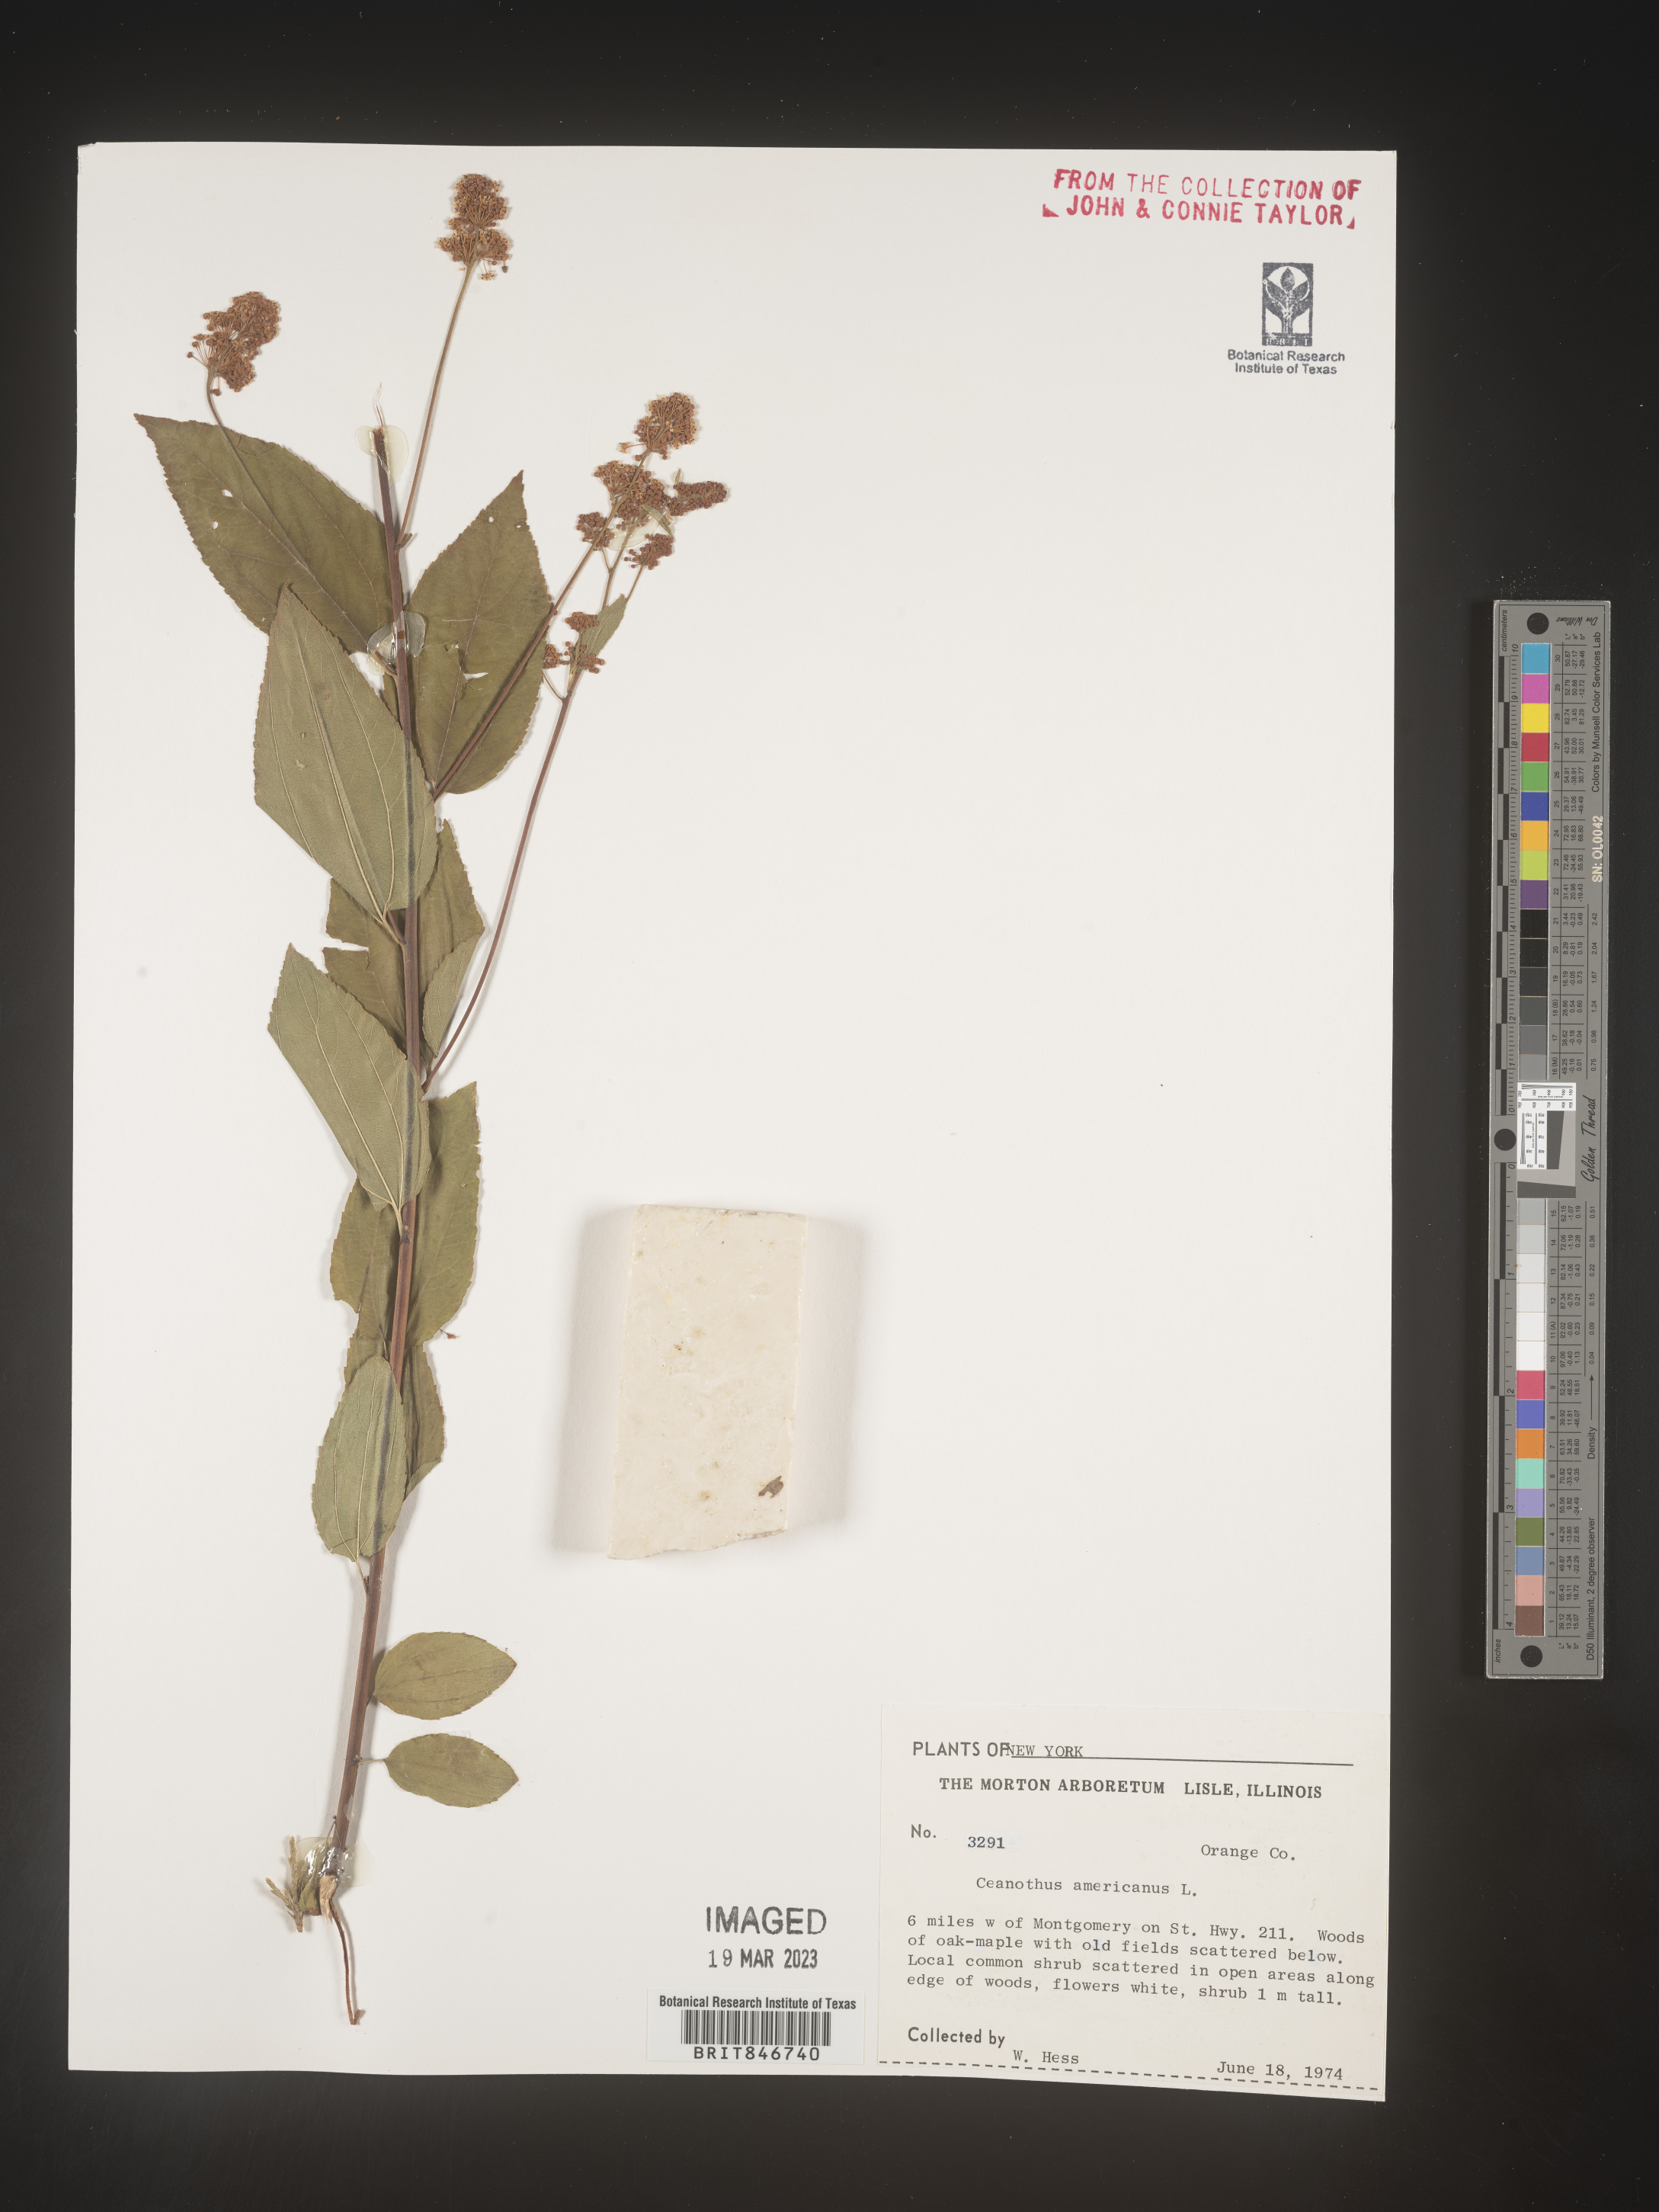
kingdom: Plantae
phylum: Tracheophyta
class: Magnoliopsida
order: Rosales
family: Rhamnaceae
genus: Ceanothus
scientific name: Ceanothus americanus
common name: Redroot
